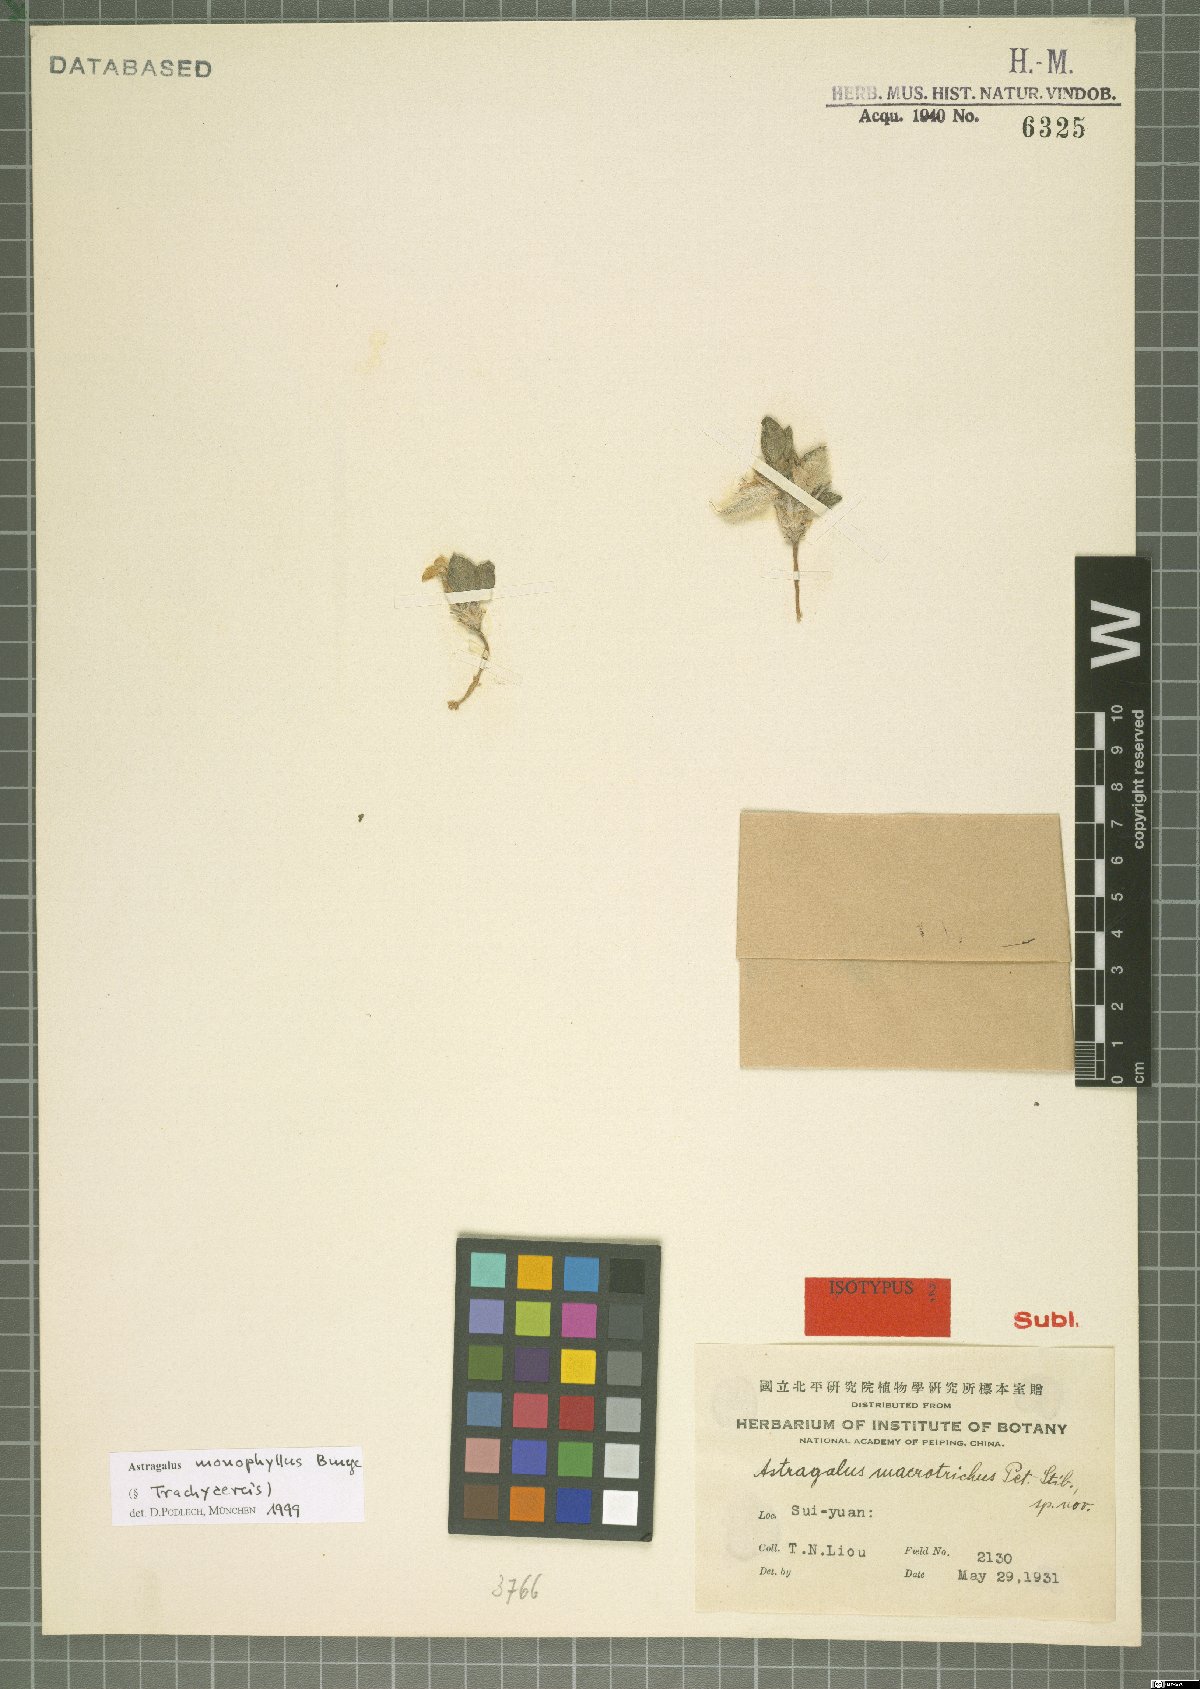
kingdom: Plantae
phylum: Tracheophyta
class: Magnoliopsida
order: Fabales
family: Fabaceae
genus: Astragalus
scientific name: Astragalus monophyllus
